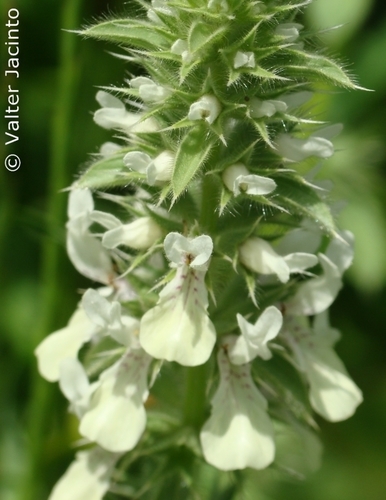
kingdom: Plantae
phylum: Tracheophyta
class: Magnoliopsida
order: Lamiales
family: Lamiaceae
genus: Stachys
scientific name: Stachys ocymastrum
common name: Italian hedgenettle
